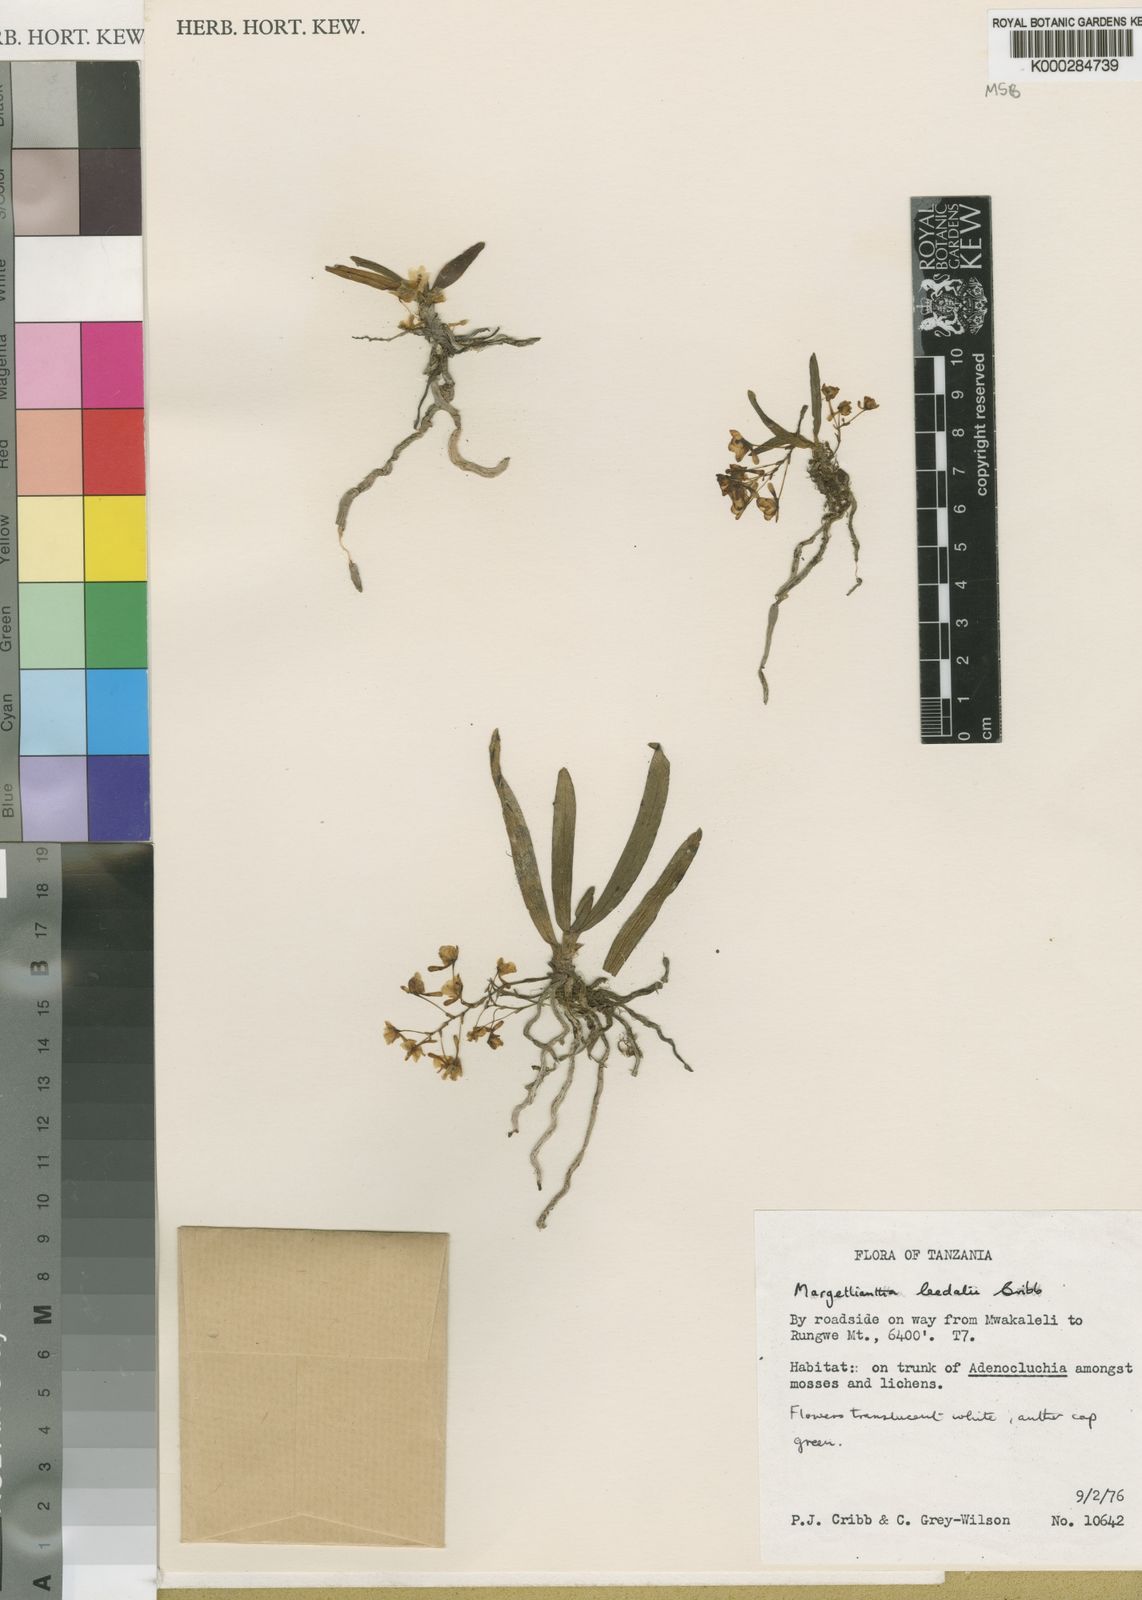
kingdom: Plantae
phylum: Tracheophyta
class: Liliopsida
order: Asparagales
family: Orchidaceae
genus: Rhipidoglossum
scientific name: Rhipidoglossum leedalii
